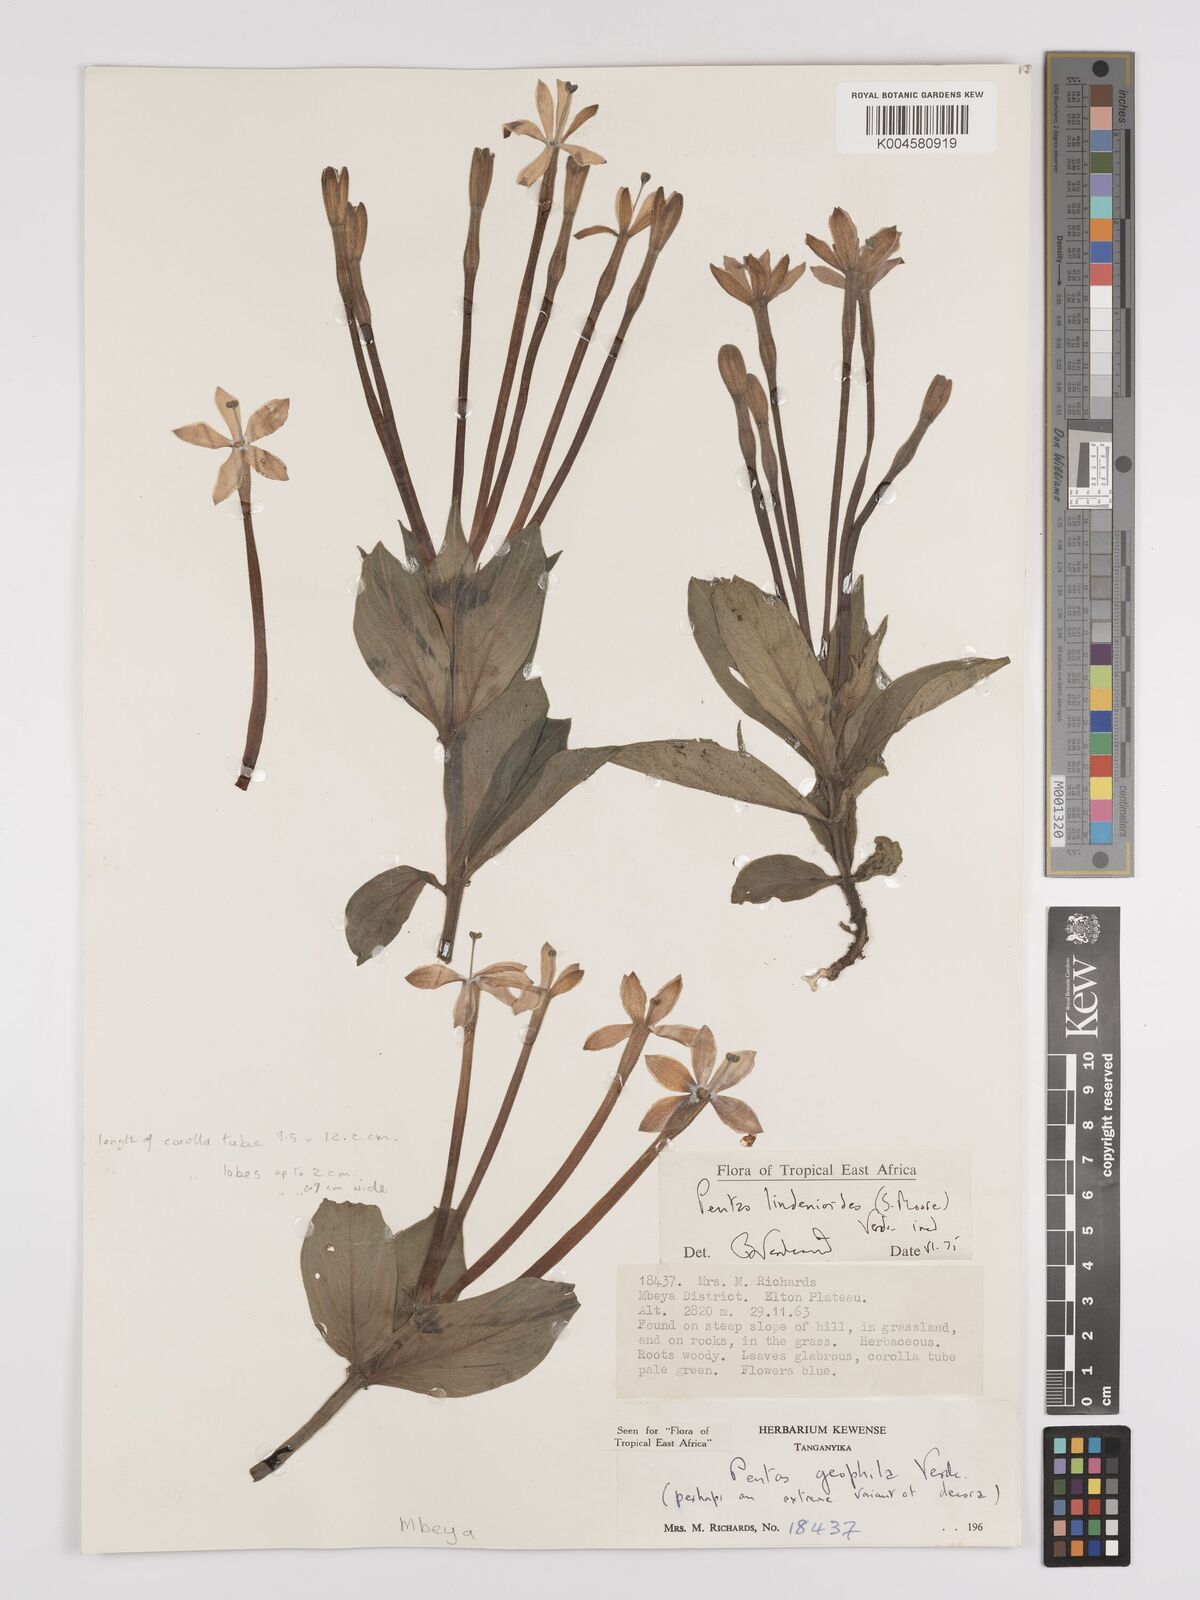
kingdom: Plantae
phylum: Tracheophyta
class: Magnoliopsida
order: Gentianales
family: Rubiaceae
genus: Dolichopentas
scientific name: Dolichopentas lindenioides
